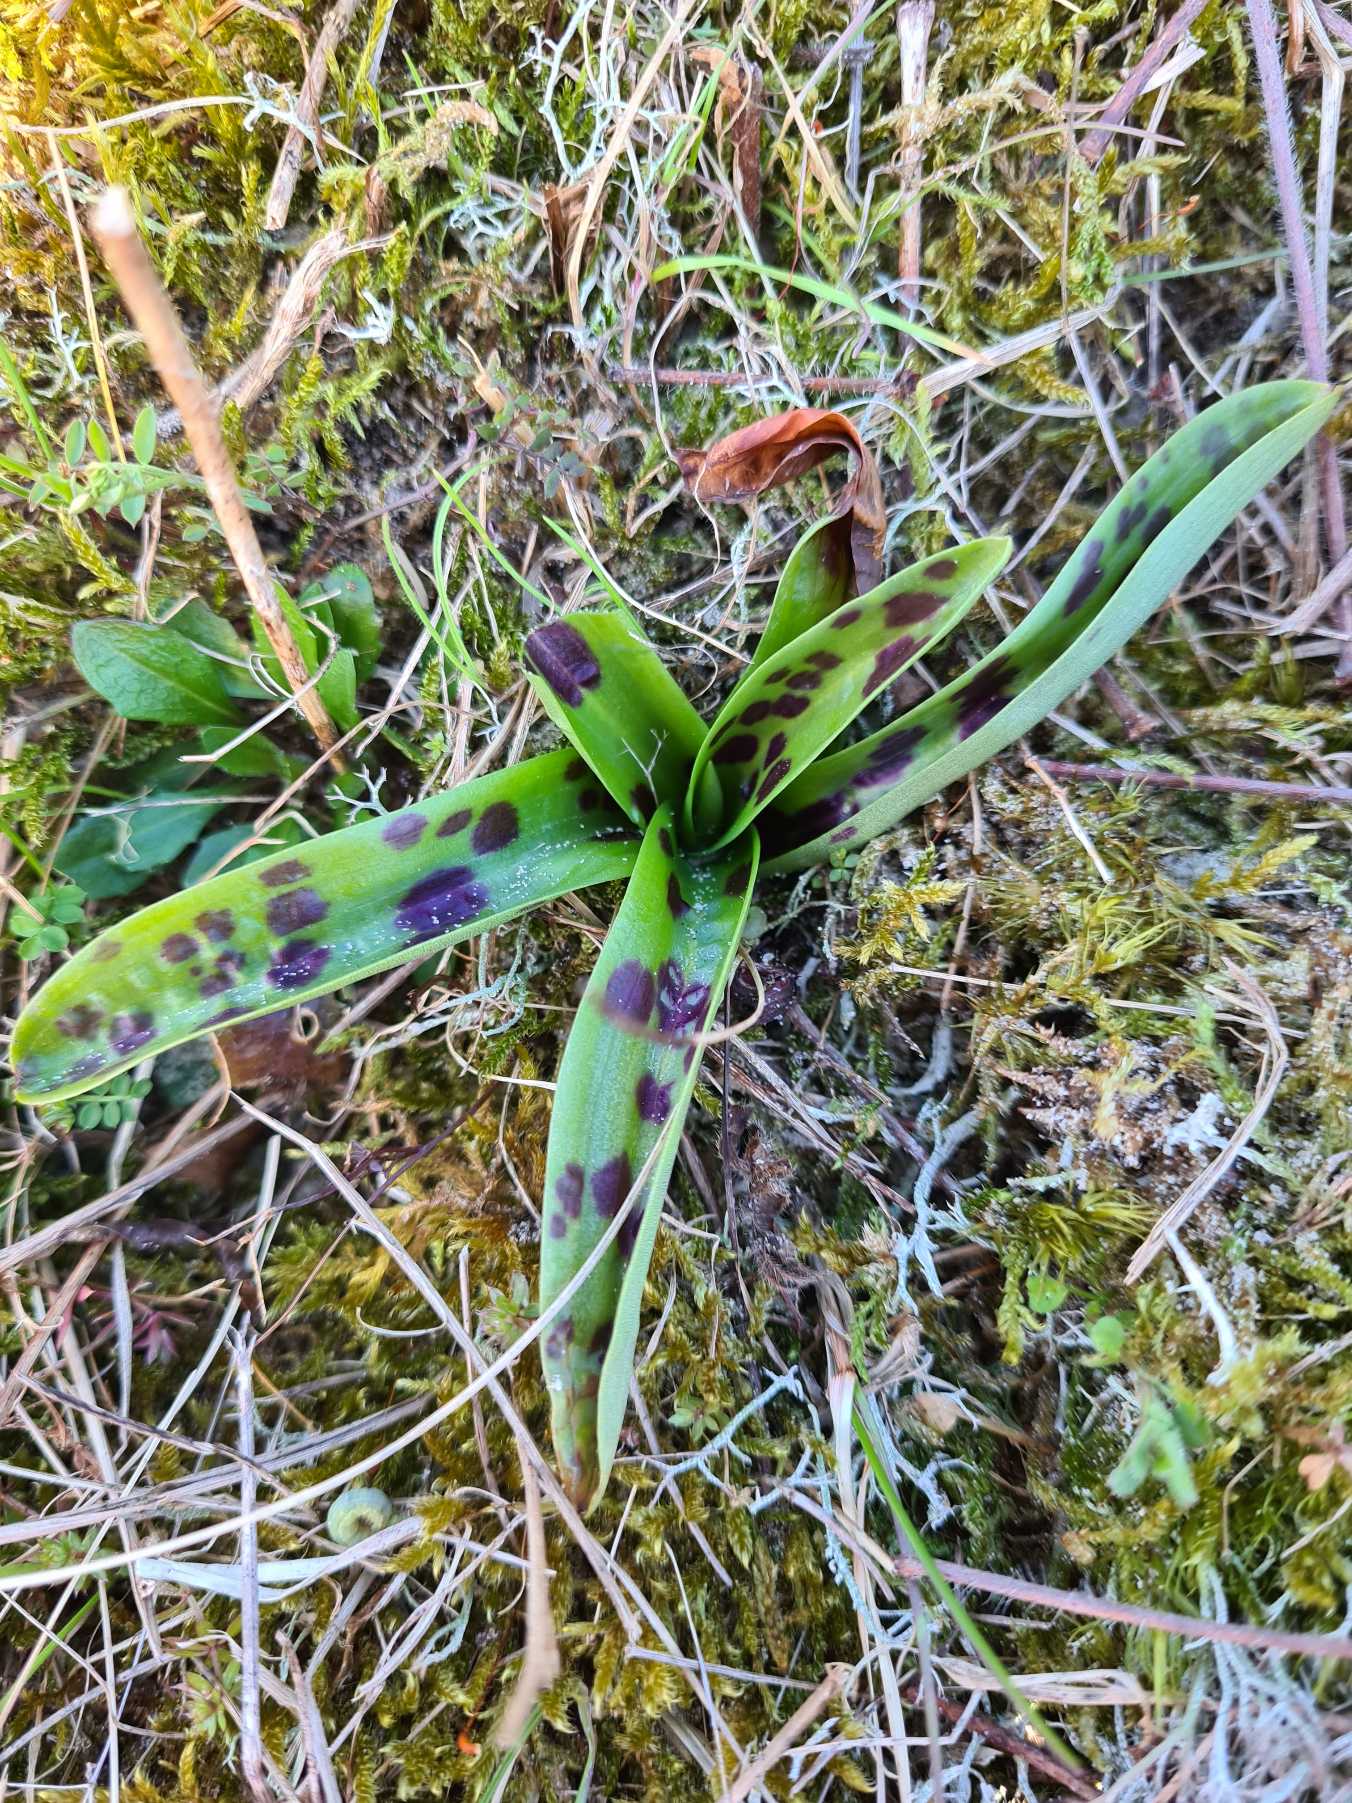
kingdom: Plantae
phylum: Tracheophyta
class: Liliopsida
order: Asparagales
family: Orchidaceae
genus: Orchis
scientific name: Orchis mascula
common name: Tyndakset gøgeurt
